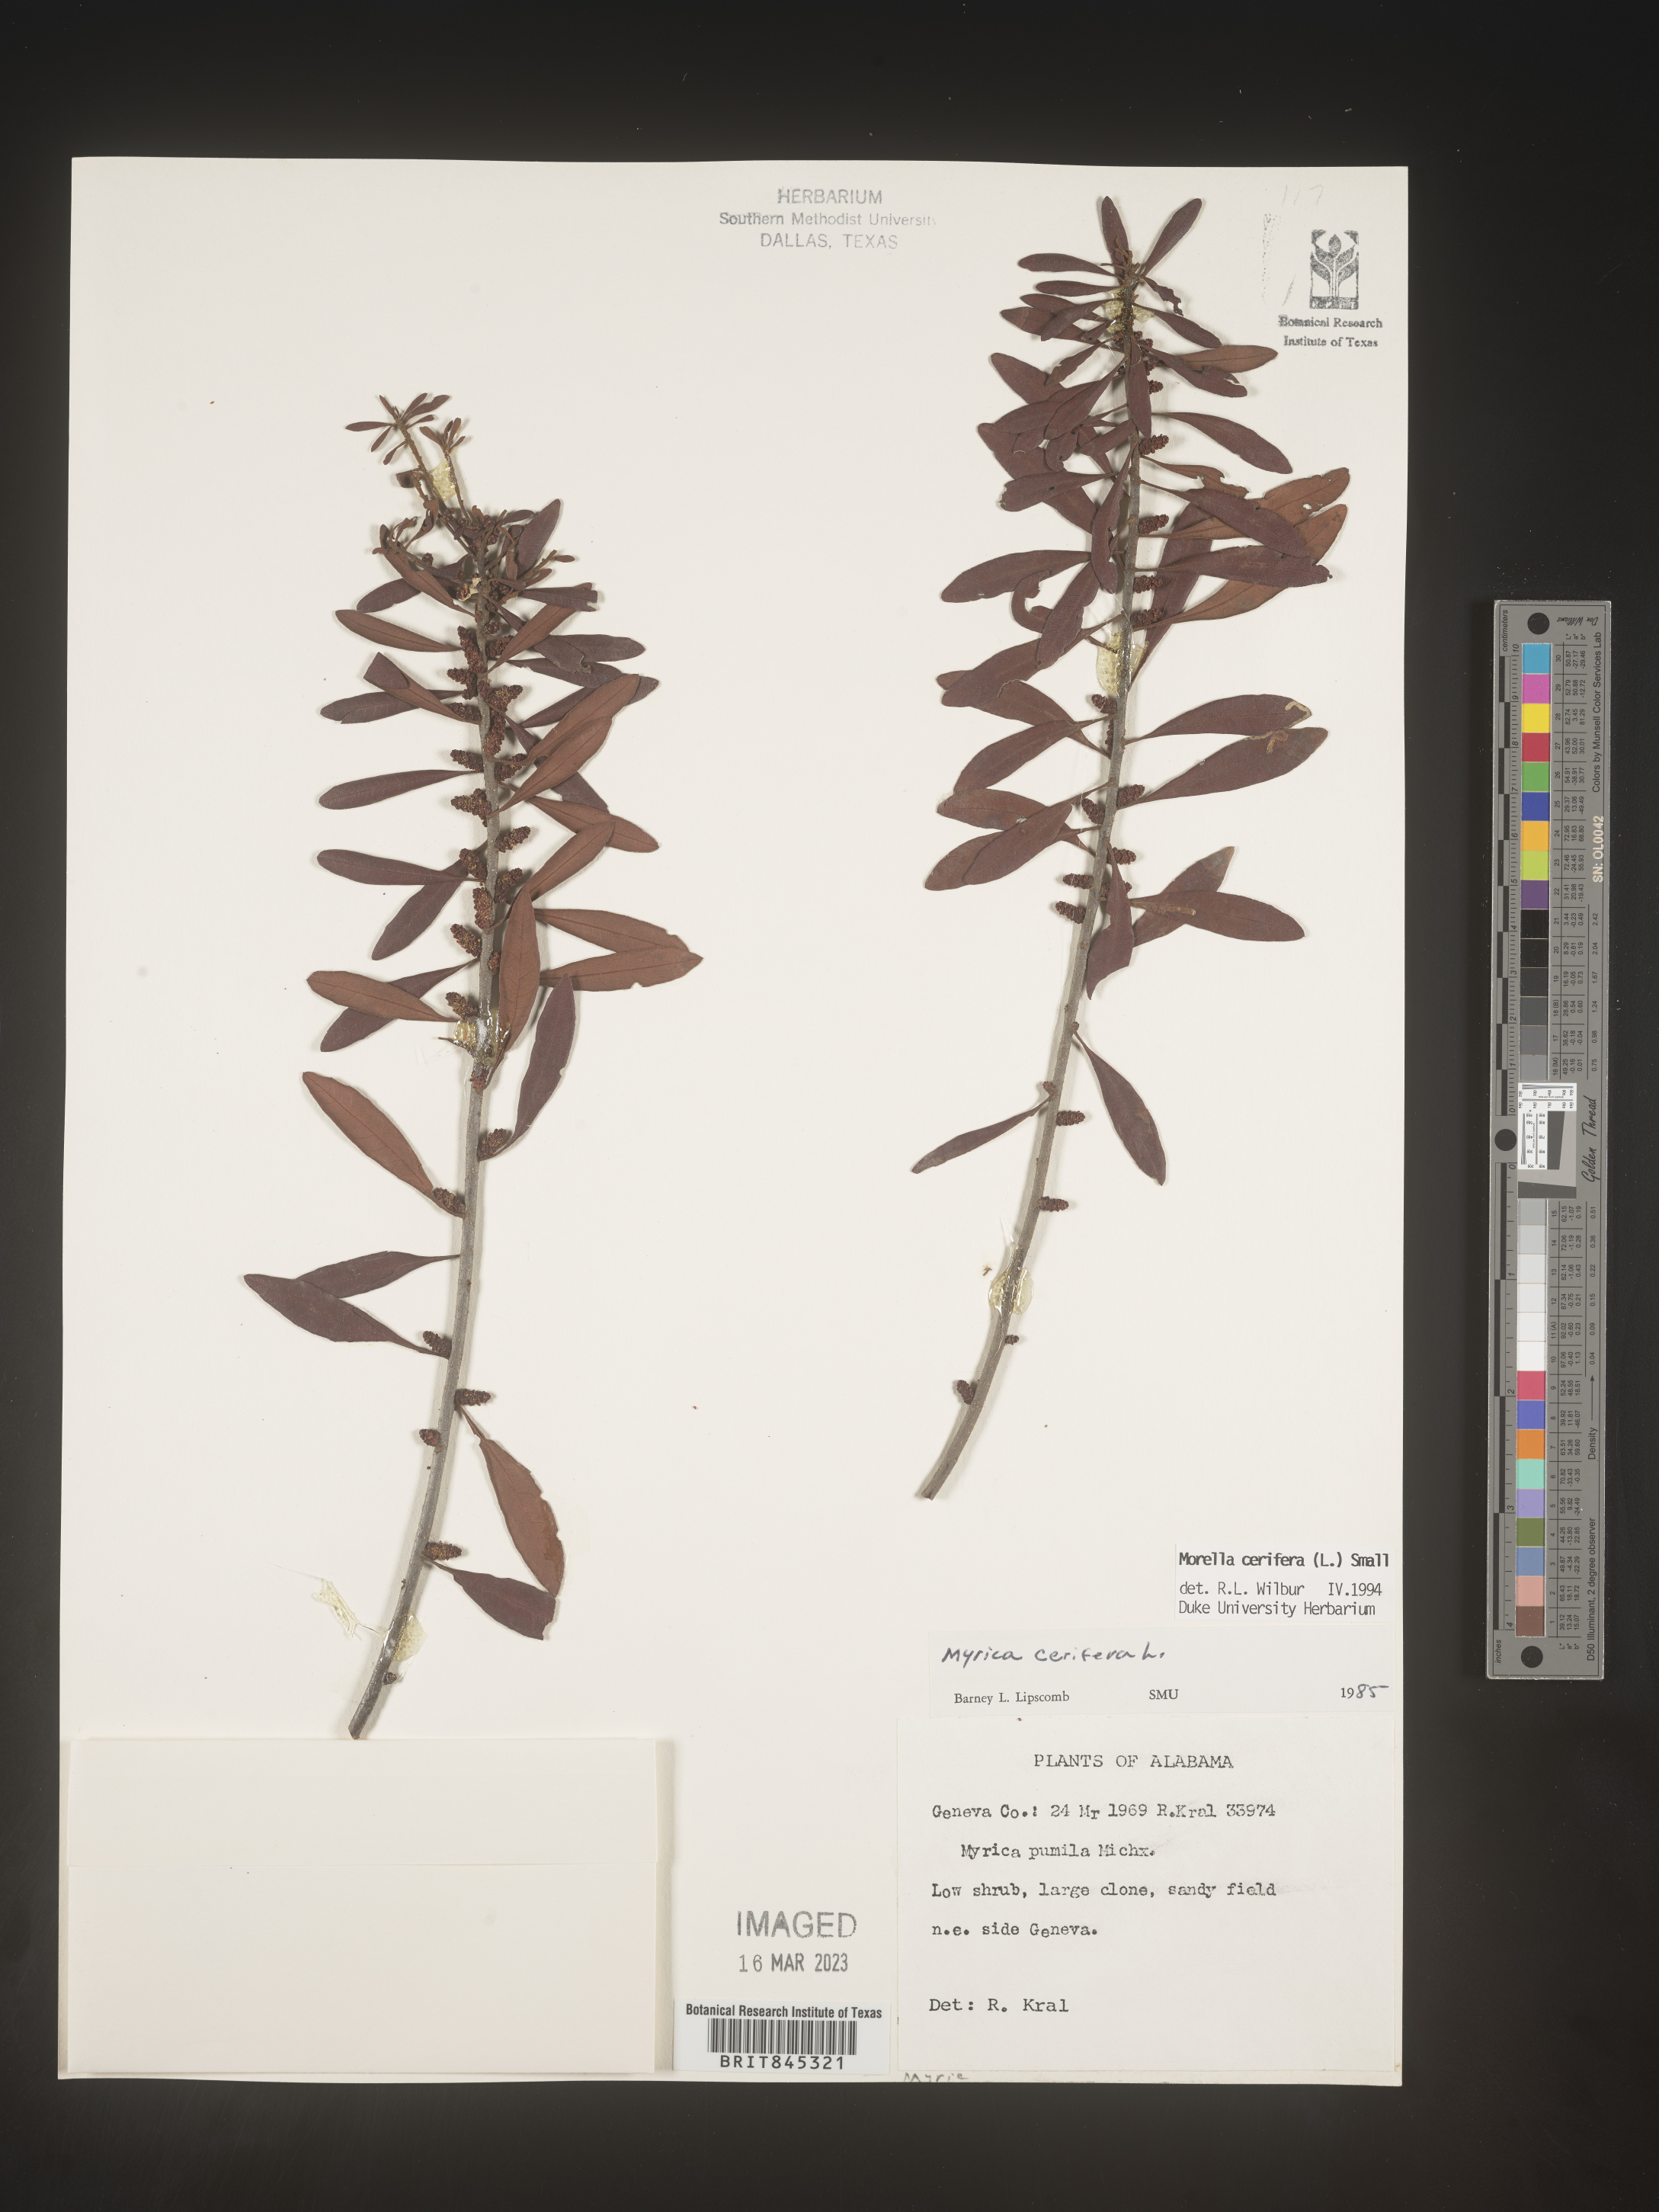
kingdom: Plantae
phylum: Tracheophyta
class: Magnoliopsida
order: Fagales
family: Myricaceae
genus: Morella
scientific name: Morella cerifera
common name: Wax myrtle
